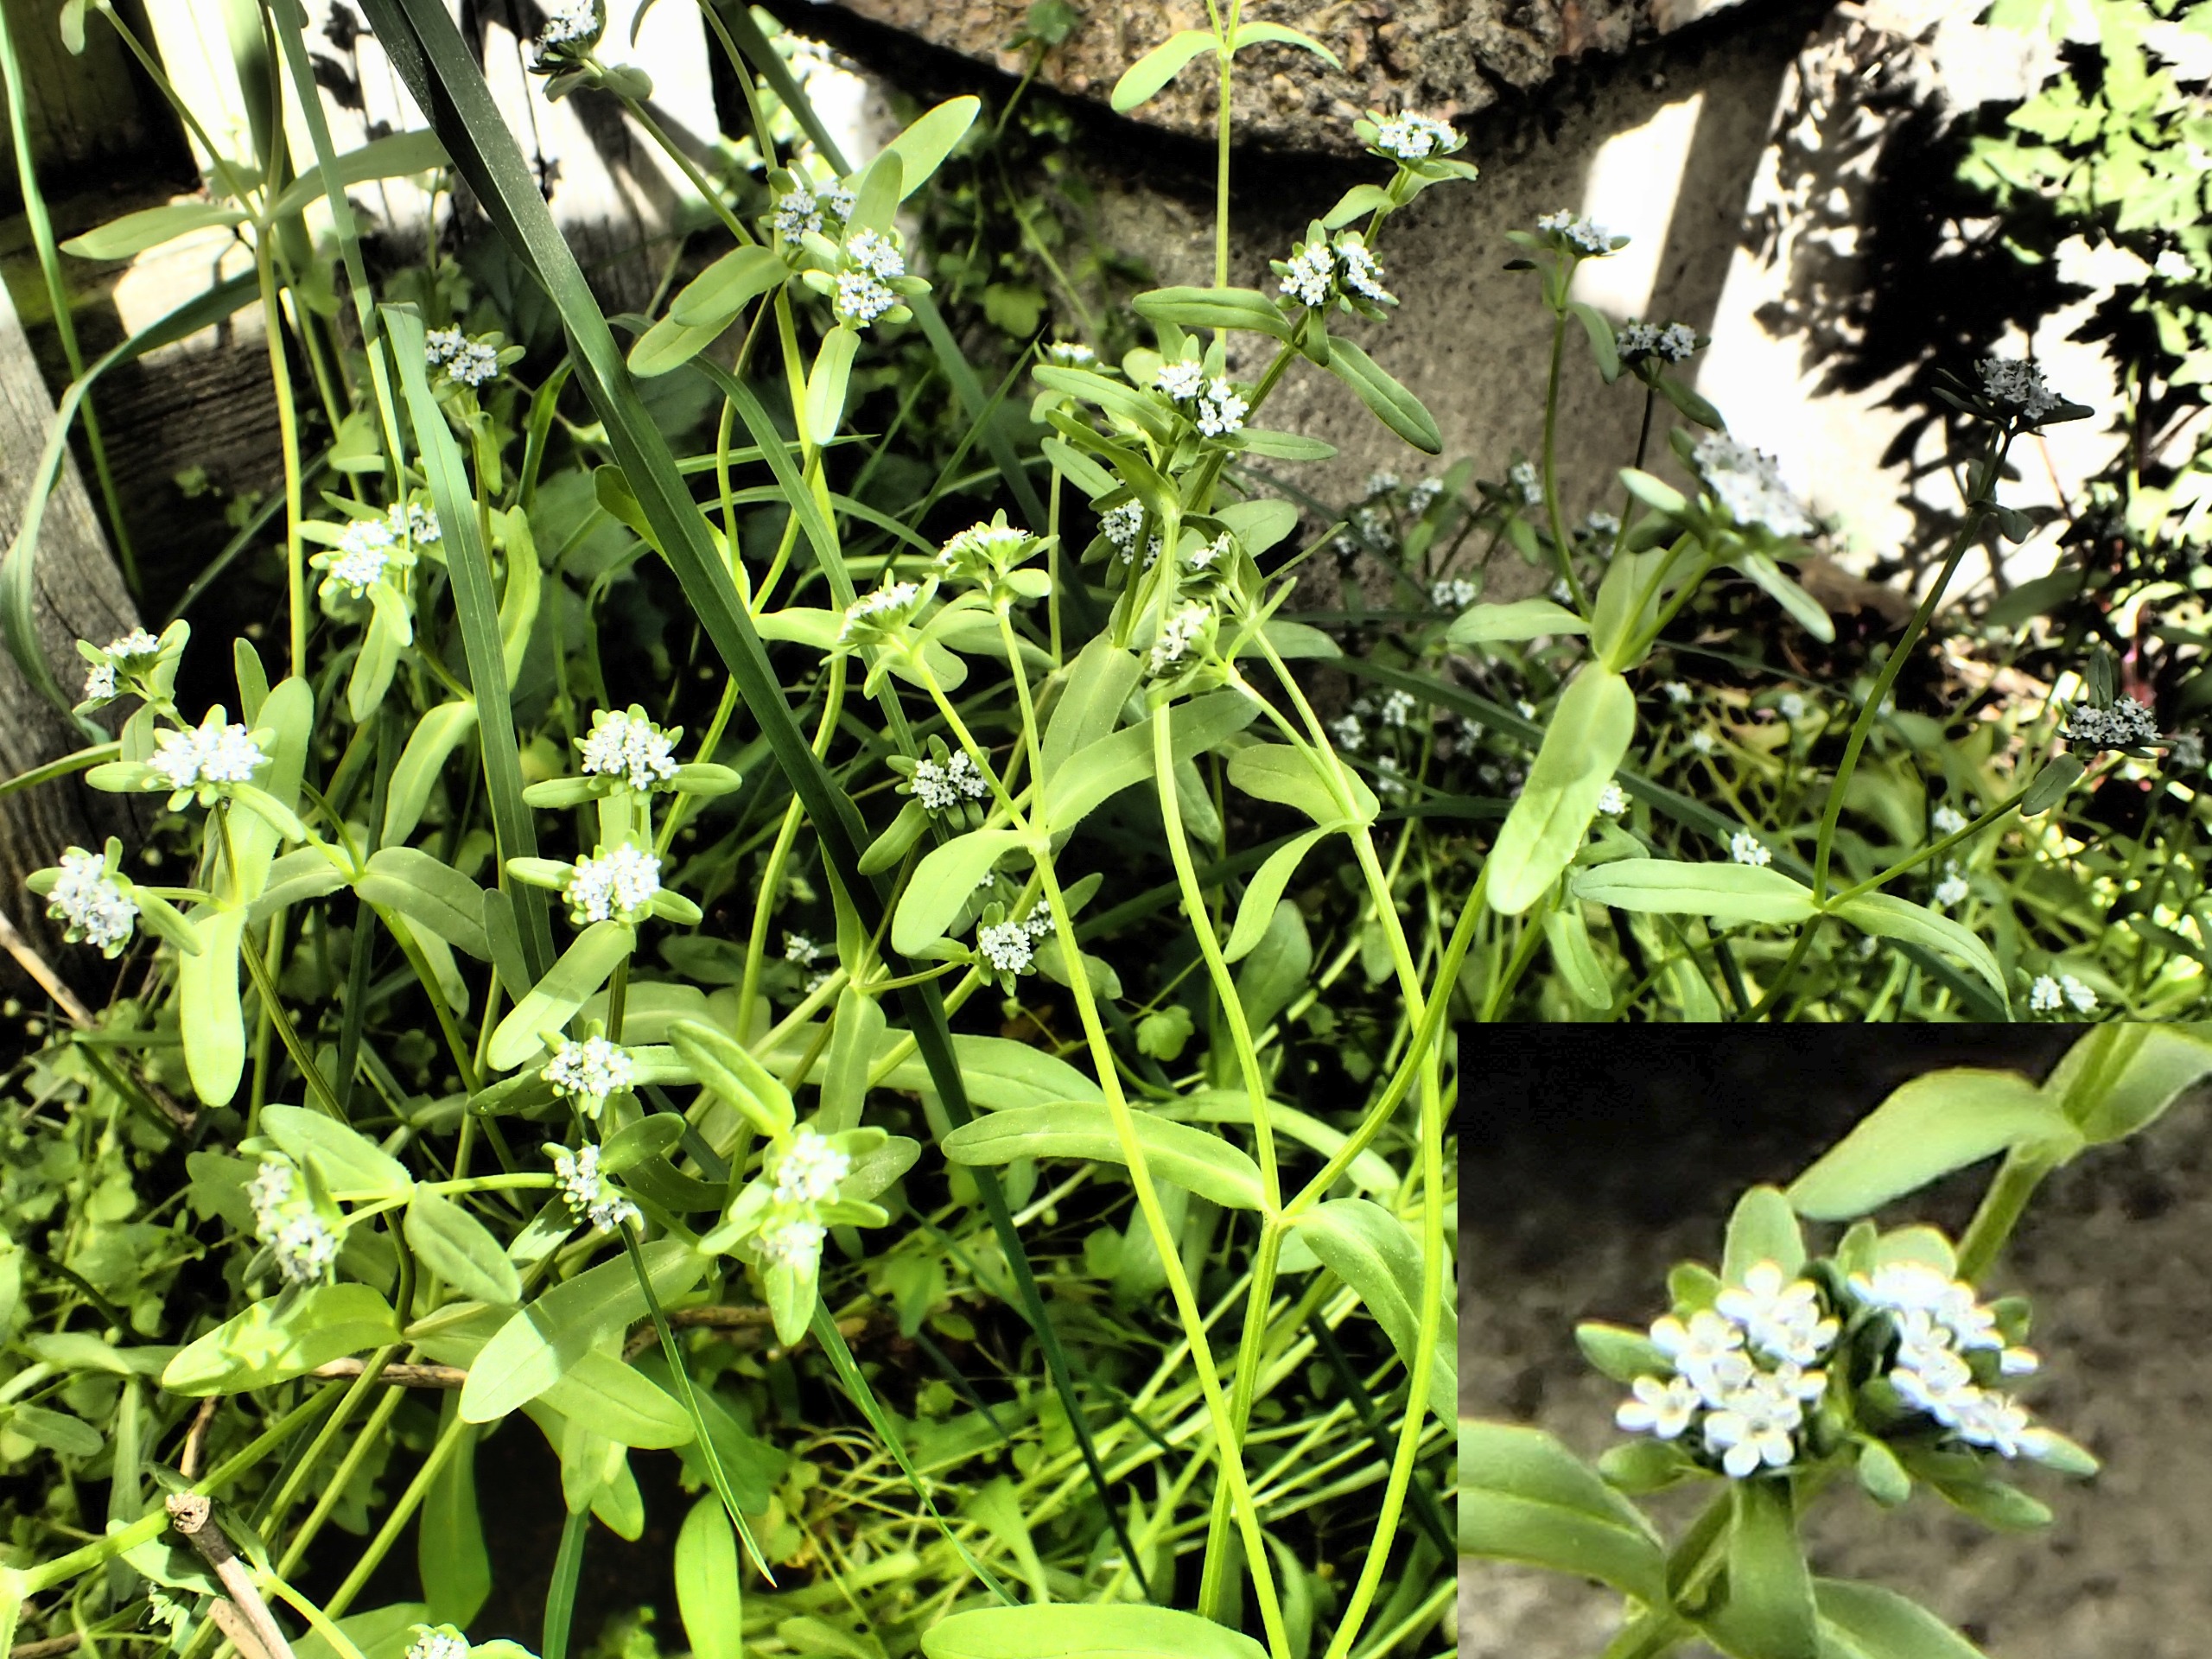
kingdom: Plantae
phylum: Tracheophyta
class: Magnoliopsida
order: Dipsacales
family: Caprifoliaceae
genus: Valerianella
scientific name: Valerianella locusta
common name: Tandfri vårsalat
